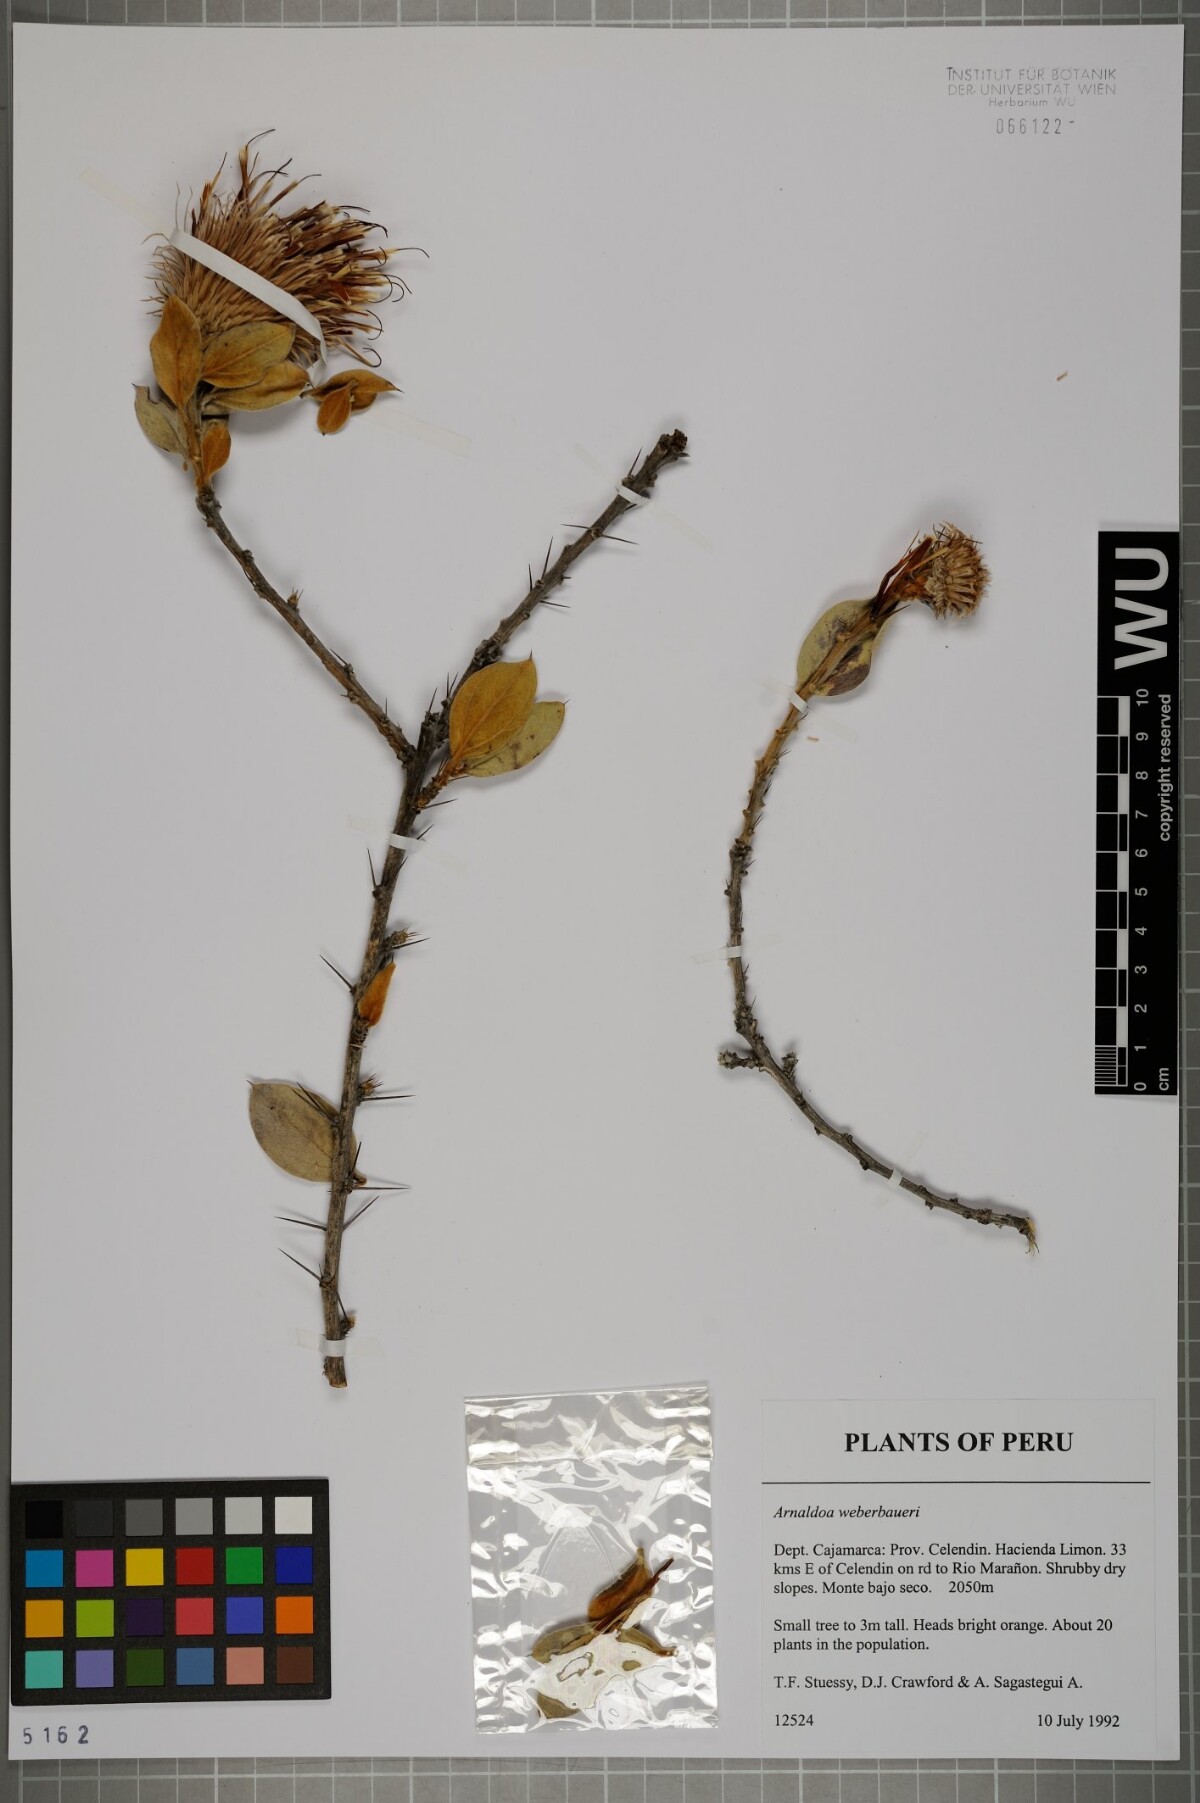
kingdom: Plantae
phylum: Tracheophyta
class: Magnoliopsida
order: Asterales
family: Asteraceae
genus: Arnaldoa
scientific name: Arnaldoa weberbaueri
